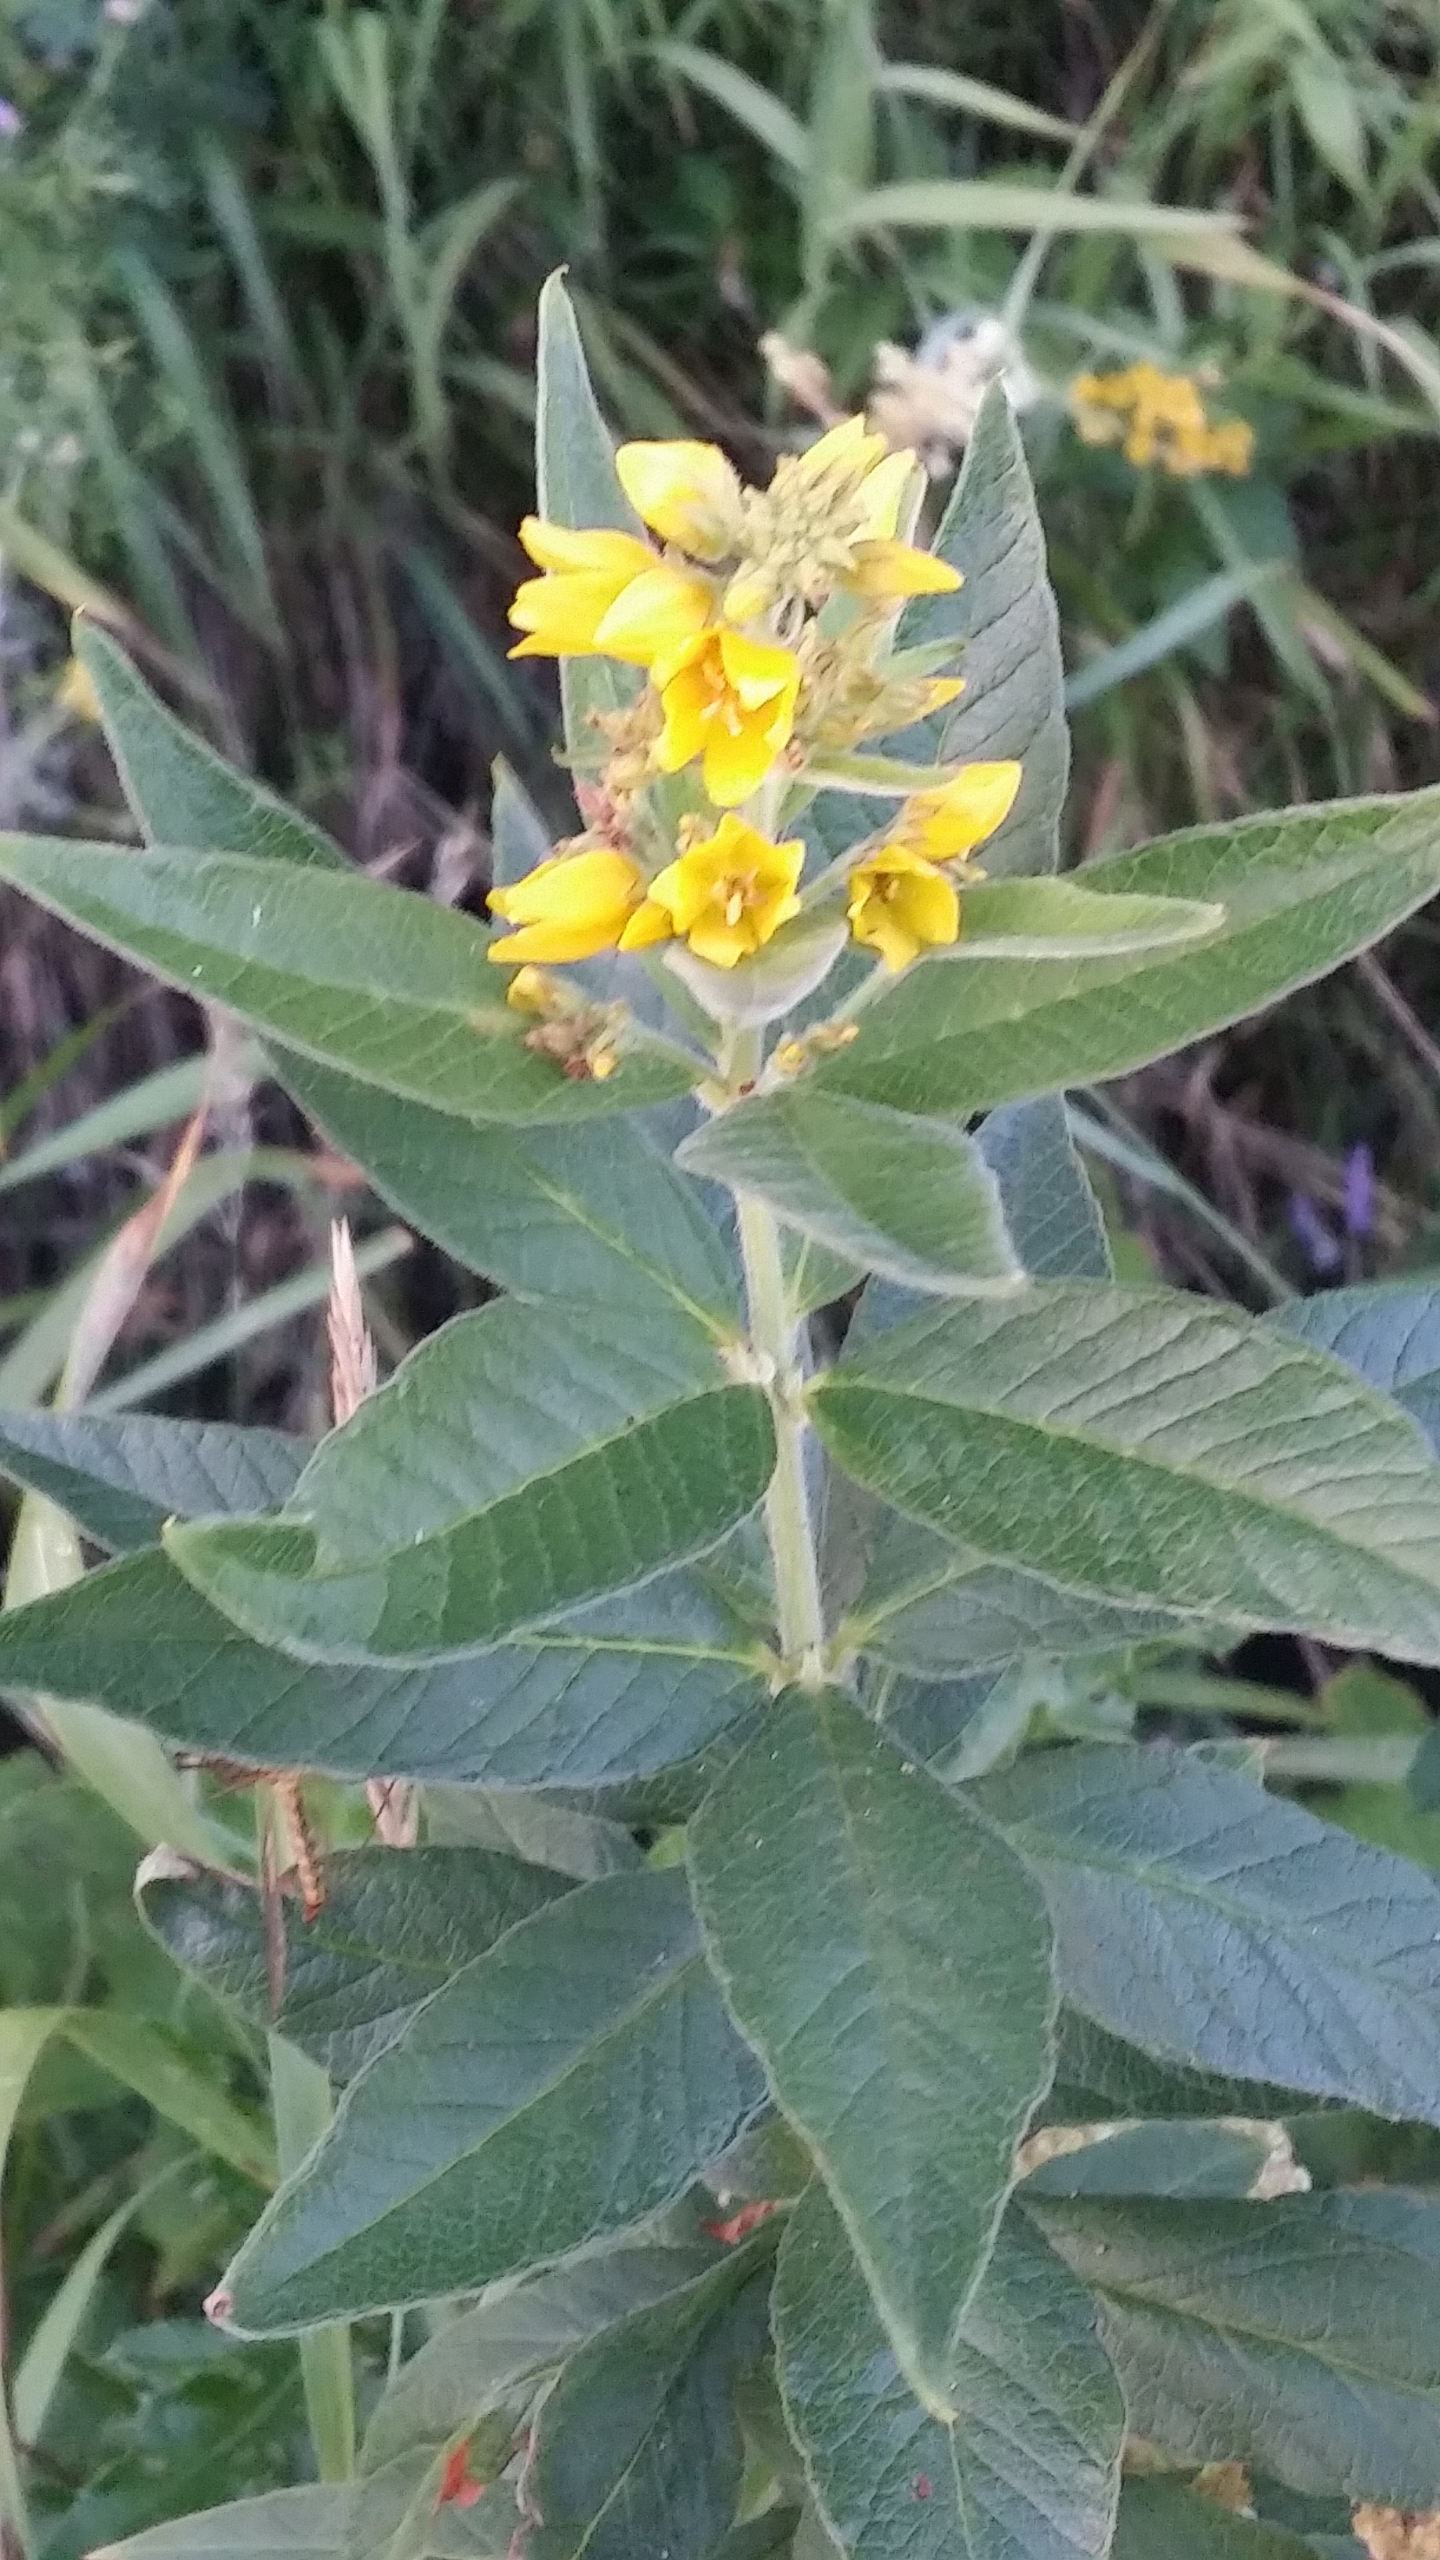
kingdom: Plantae
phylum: Tracheophyta
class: Magnoliopsida
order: Ericales
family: Primulaceae
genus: Lysimachia
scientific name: Lysimachia vulgaris
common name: Almindelig fredløs
